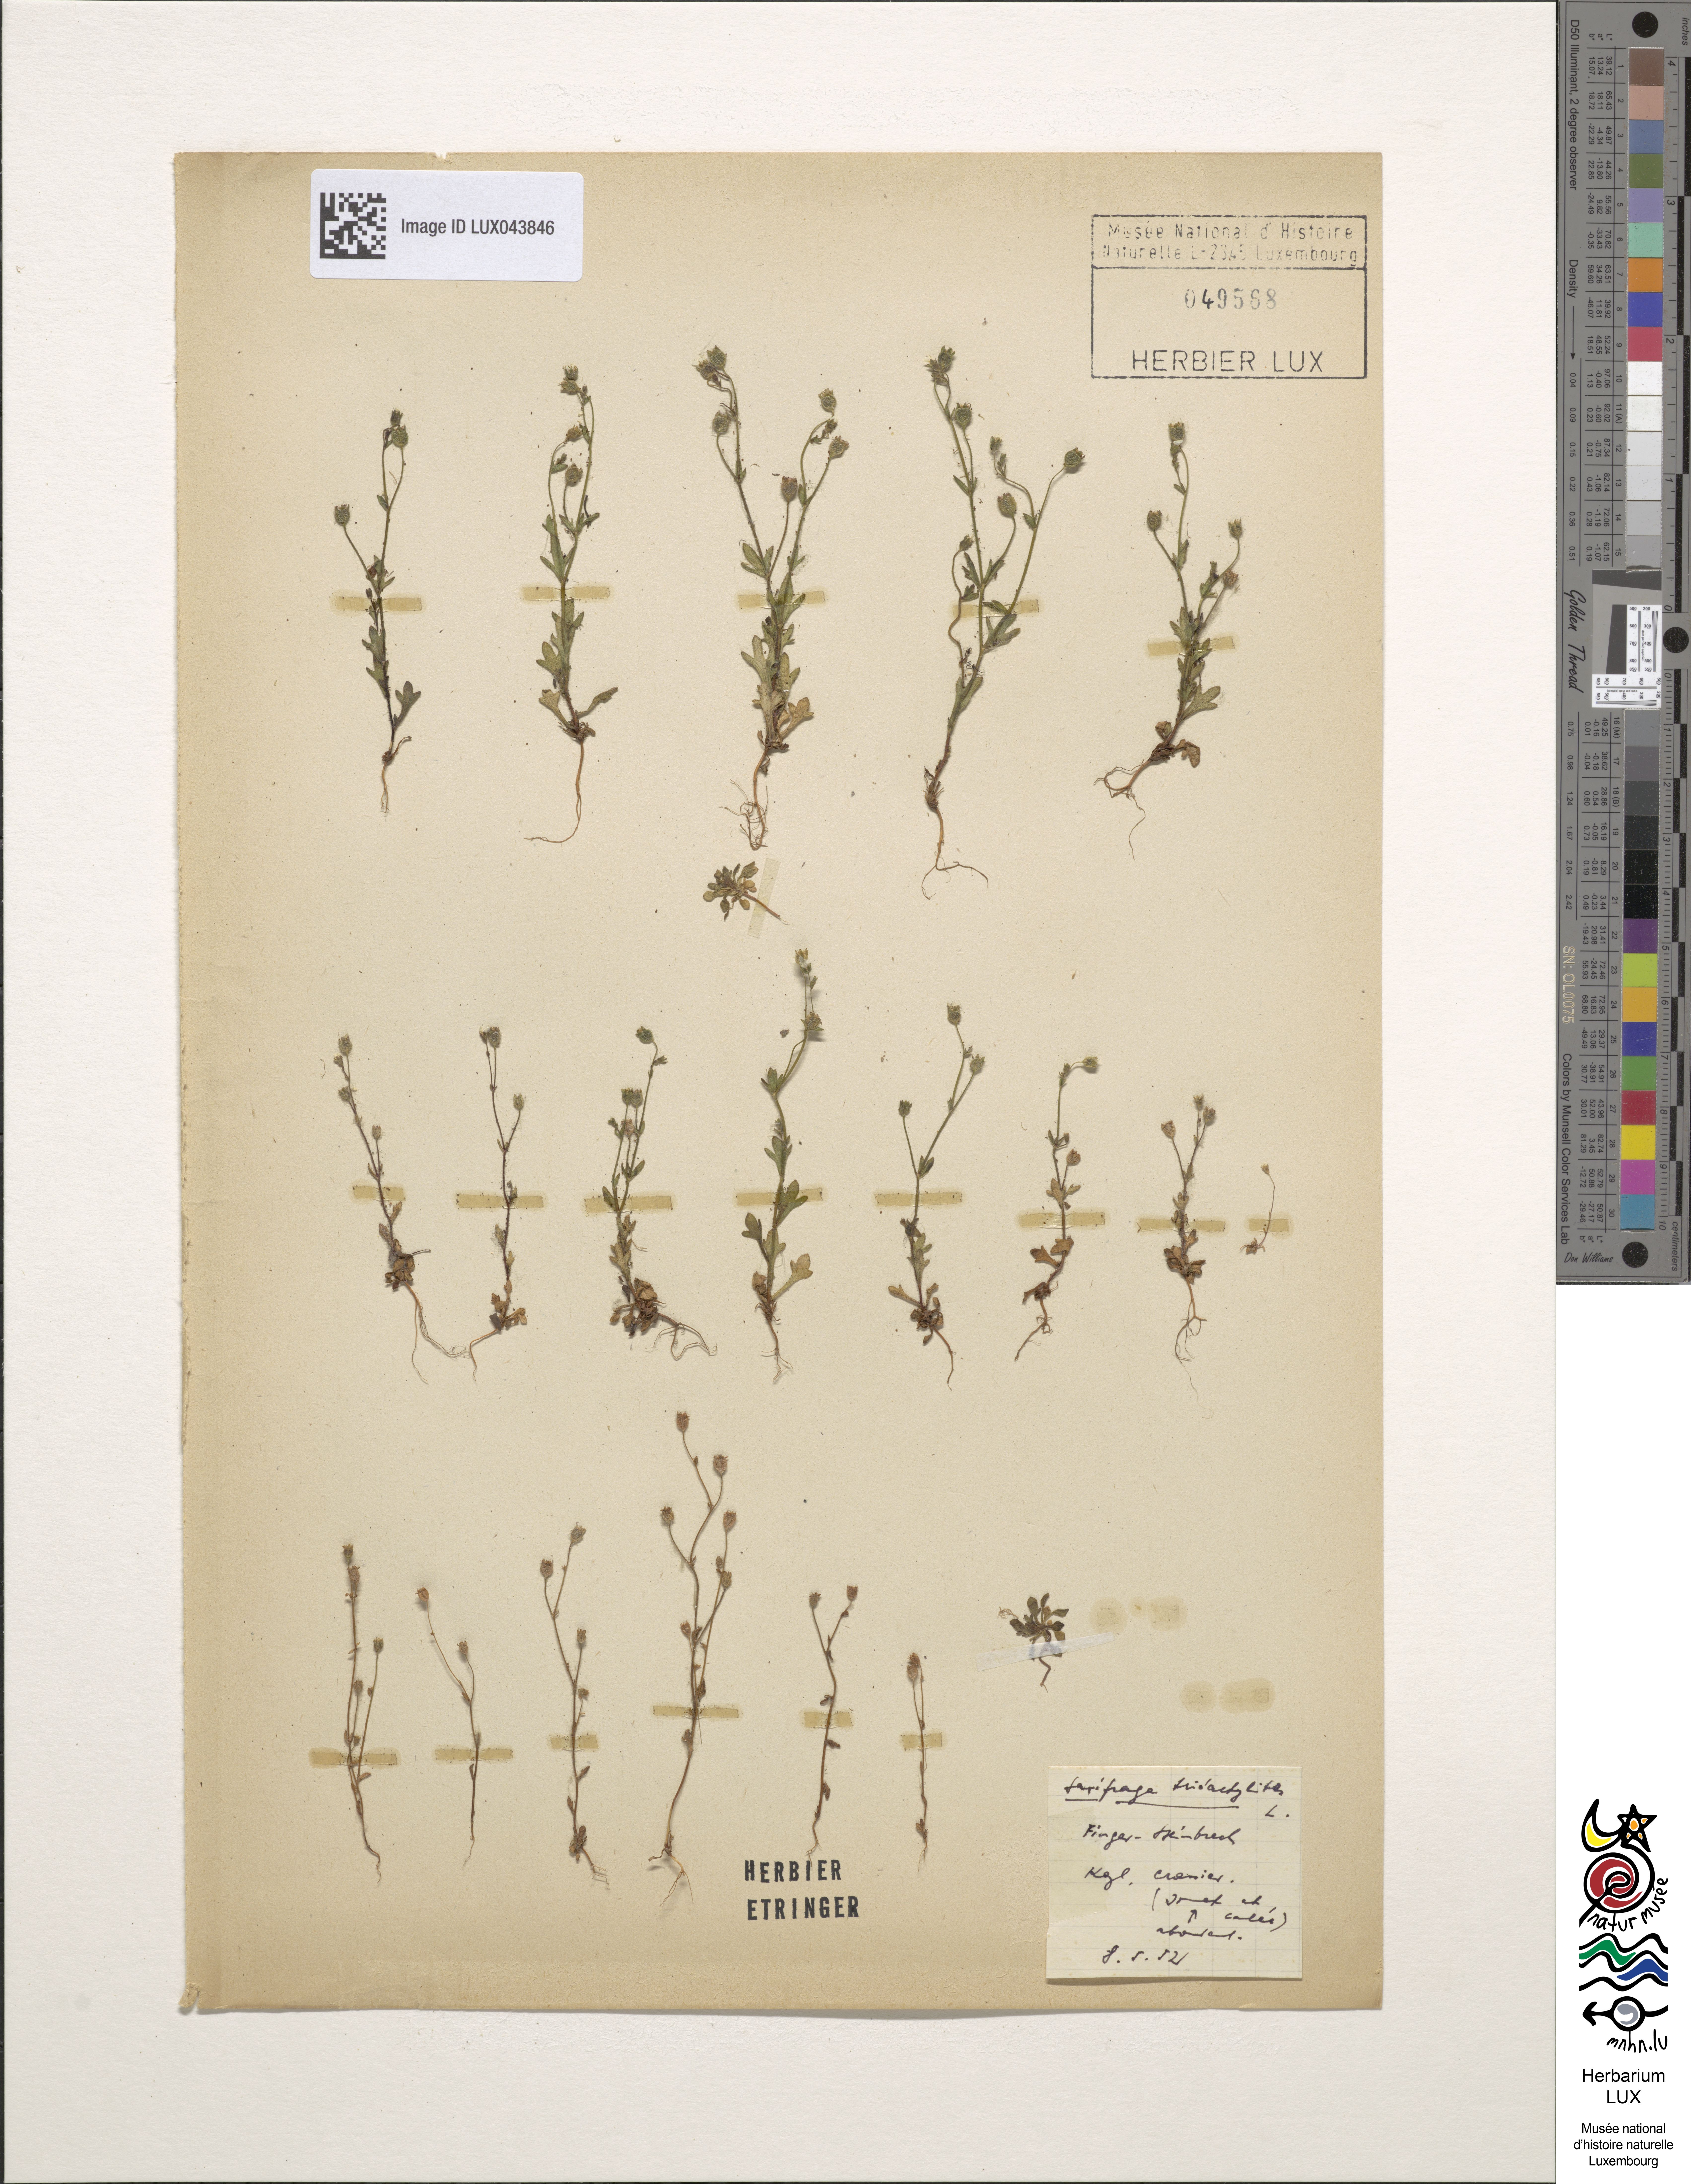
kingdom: Plantae
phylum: Tracheophyta
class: Magnoliopsida
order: Saxifragales
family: Saxifragaceae
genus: Saxifraga
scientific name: Saxifraga tridactylites
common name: Rue-leaved saxifrage
